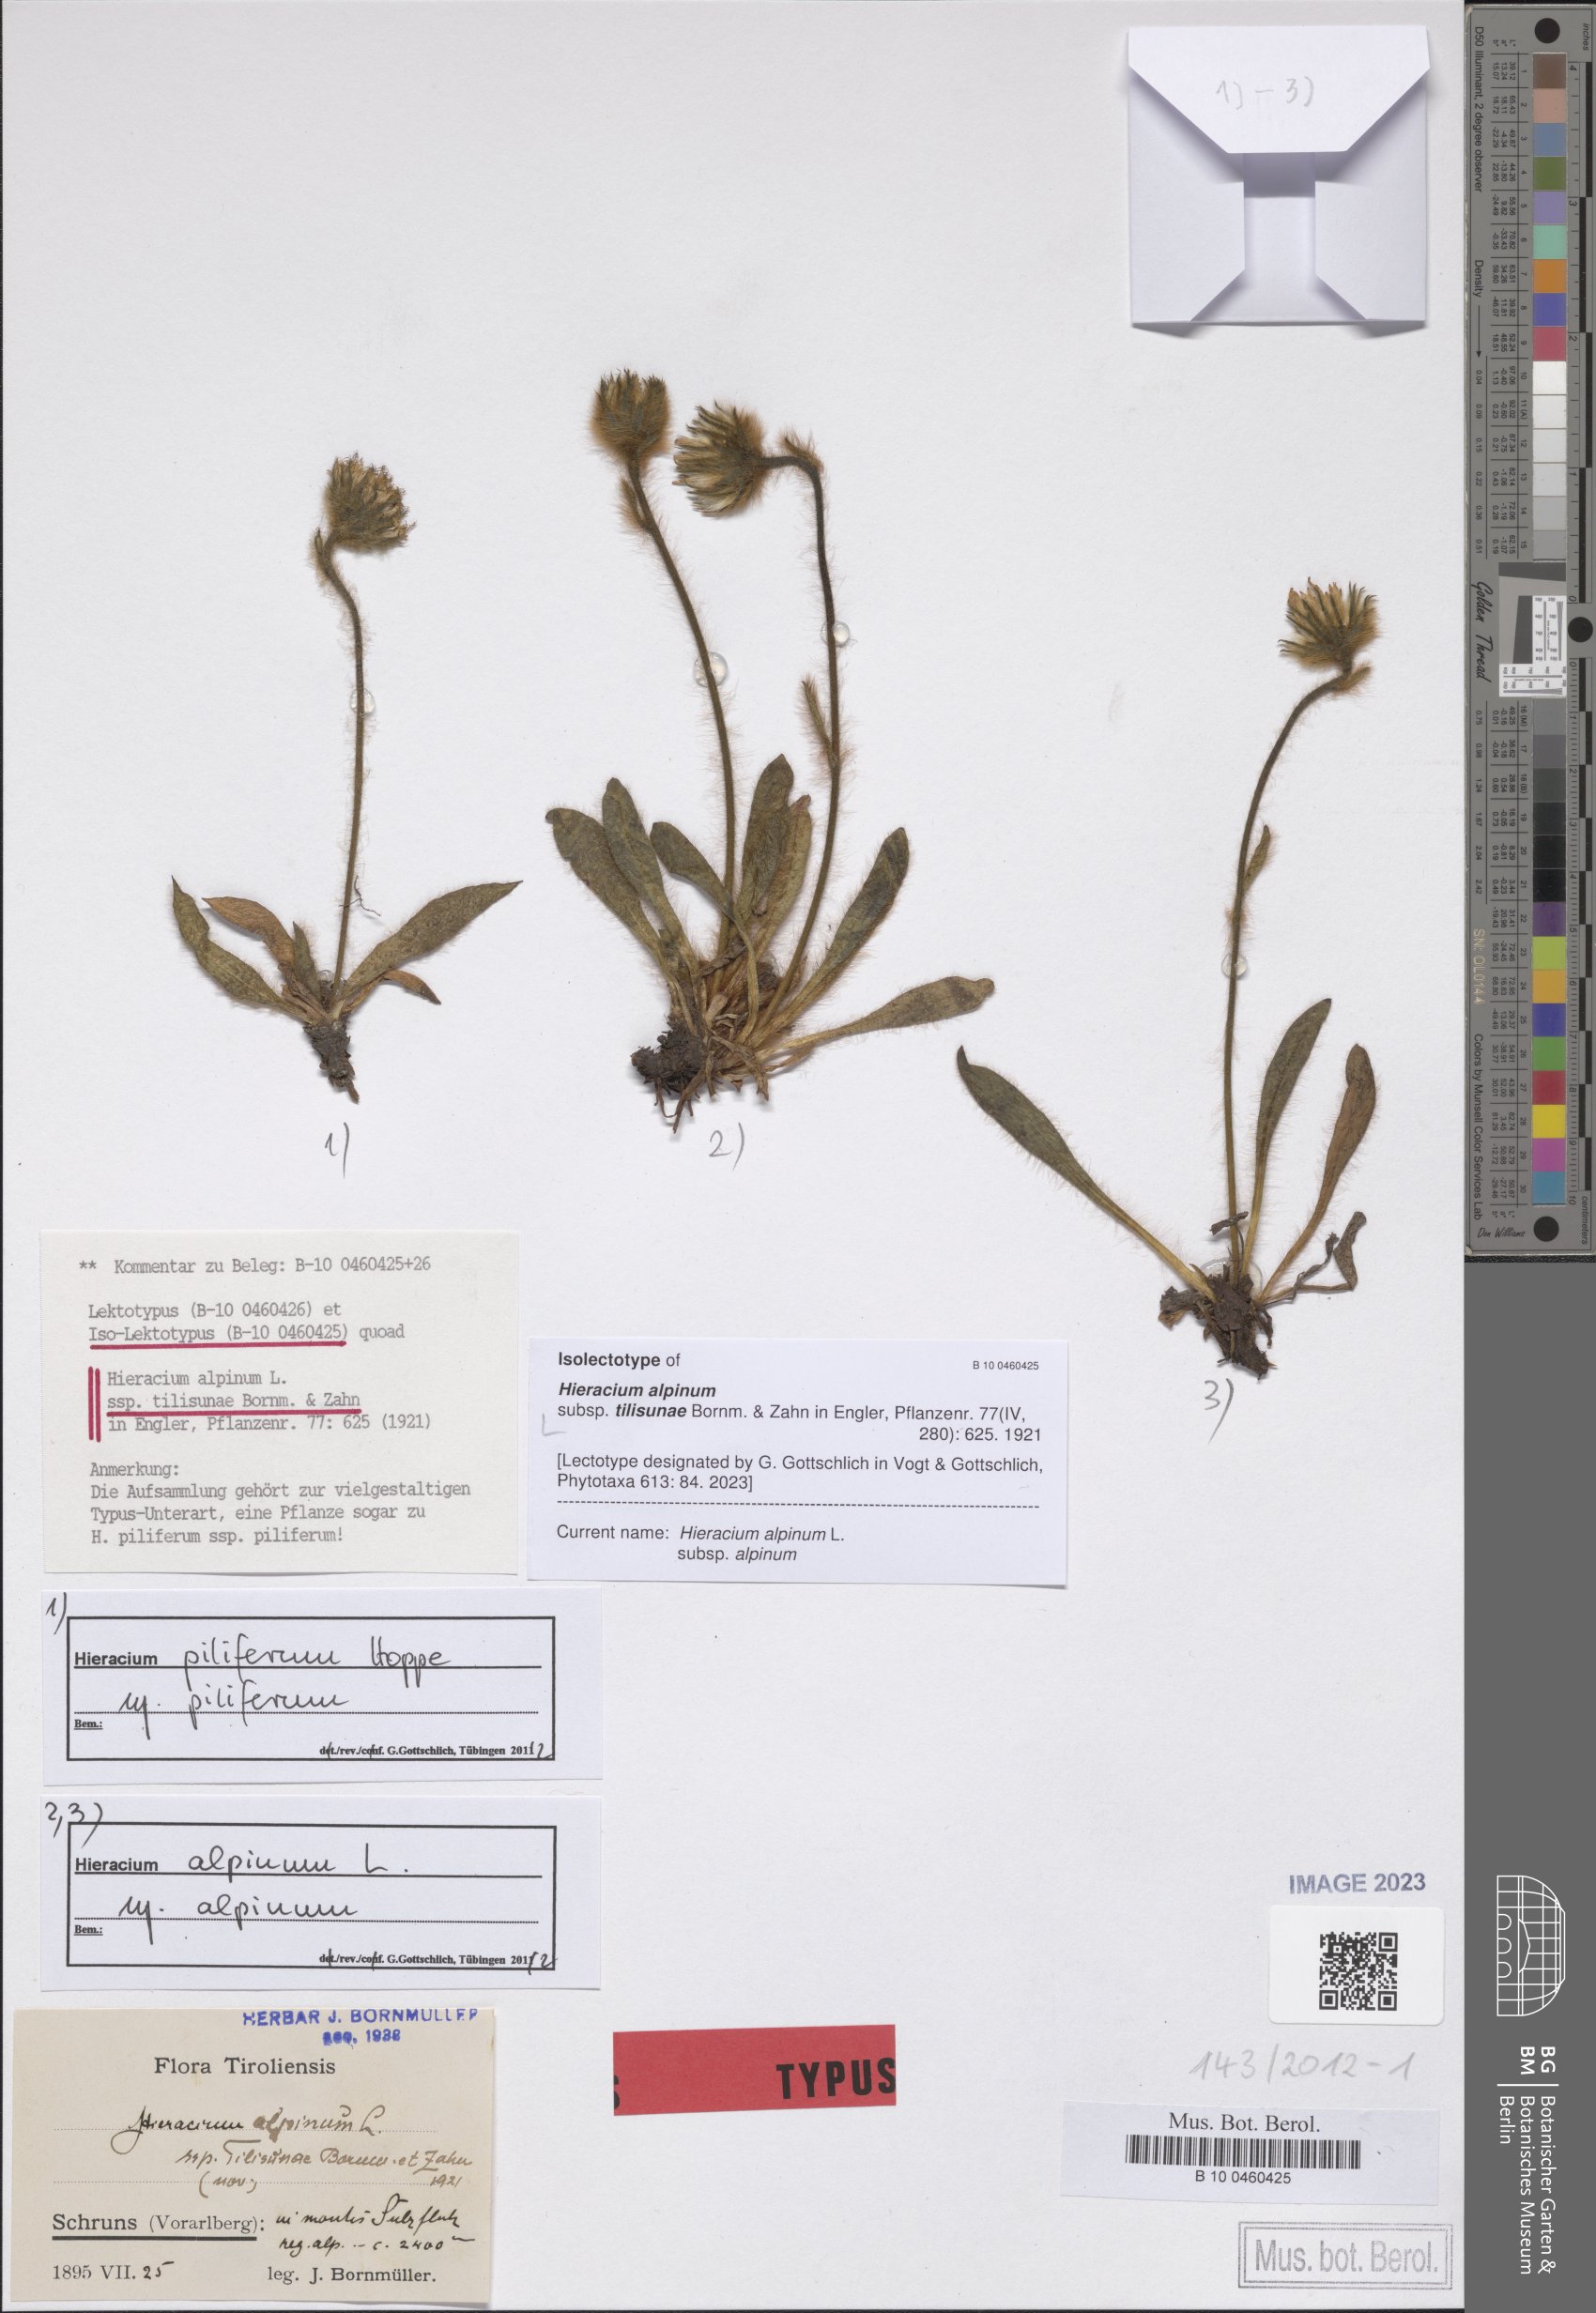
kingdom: Plantae
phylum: Tracheophyta
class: Magnoliopsida
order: Asterales
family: Asteraceae
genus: Hieracium
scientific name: Hieracium alpinum
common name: Alpine hawkweed
